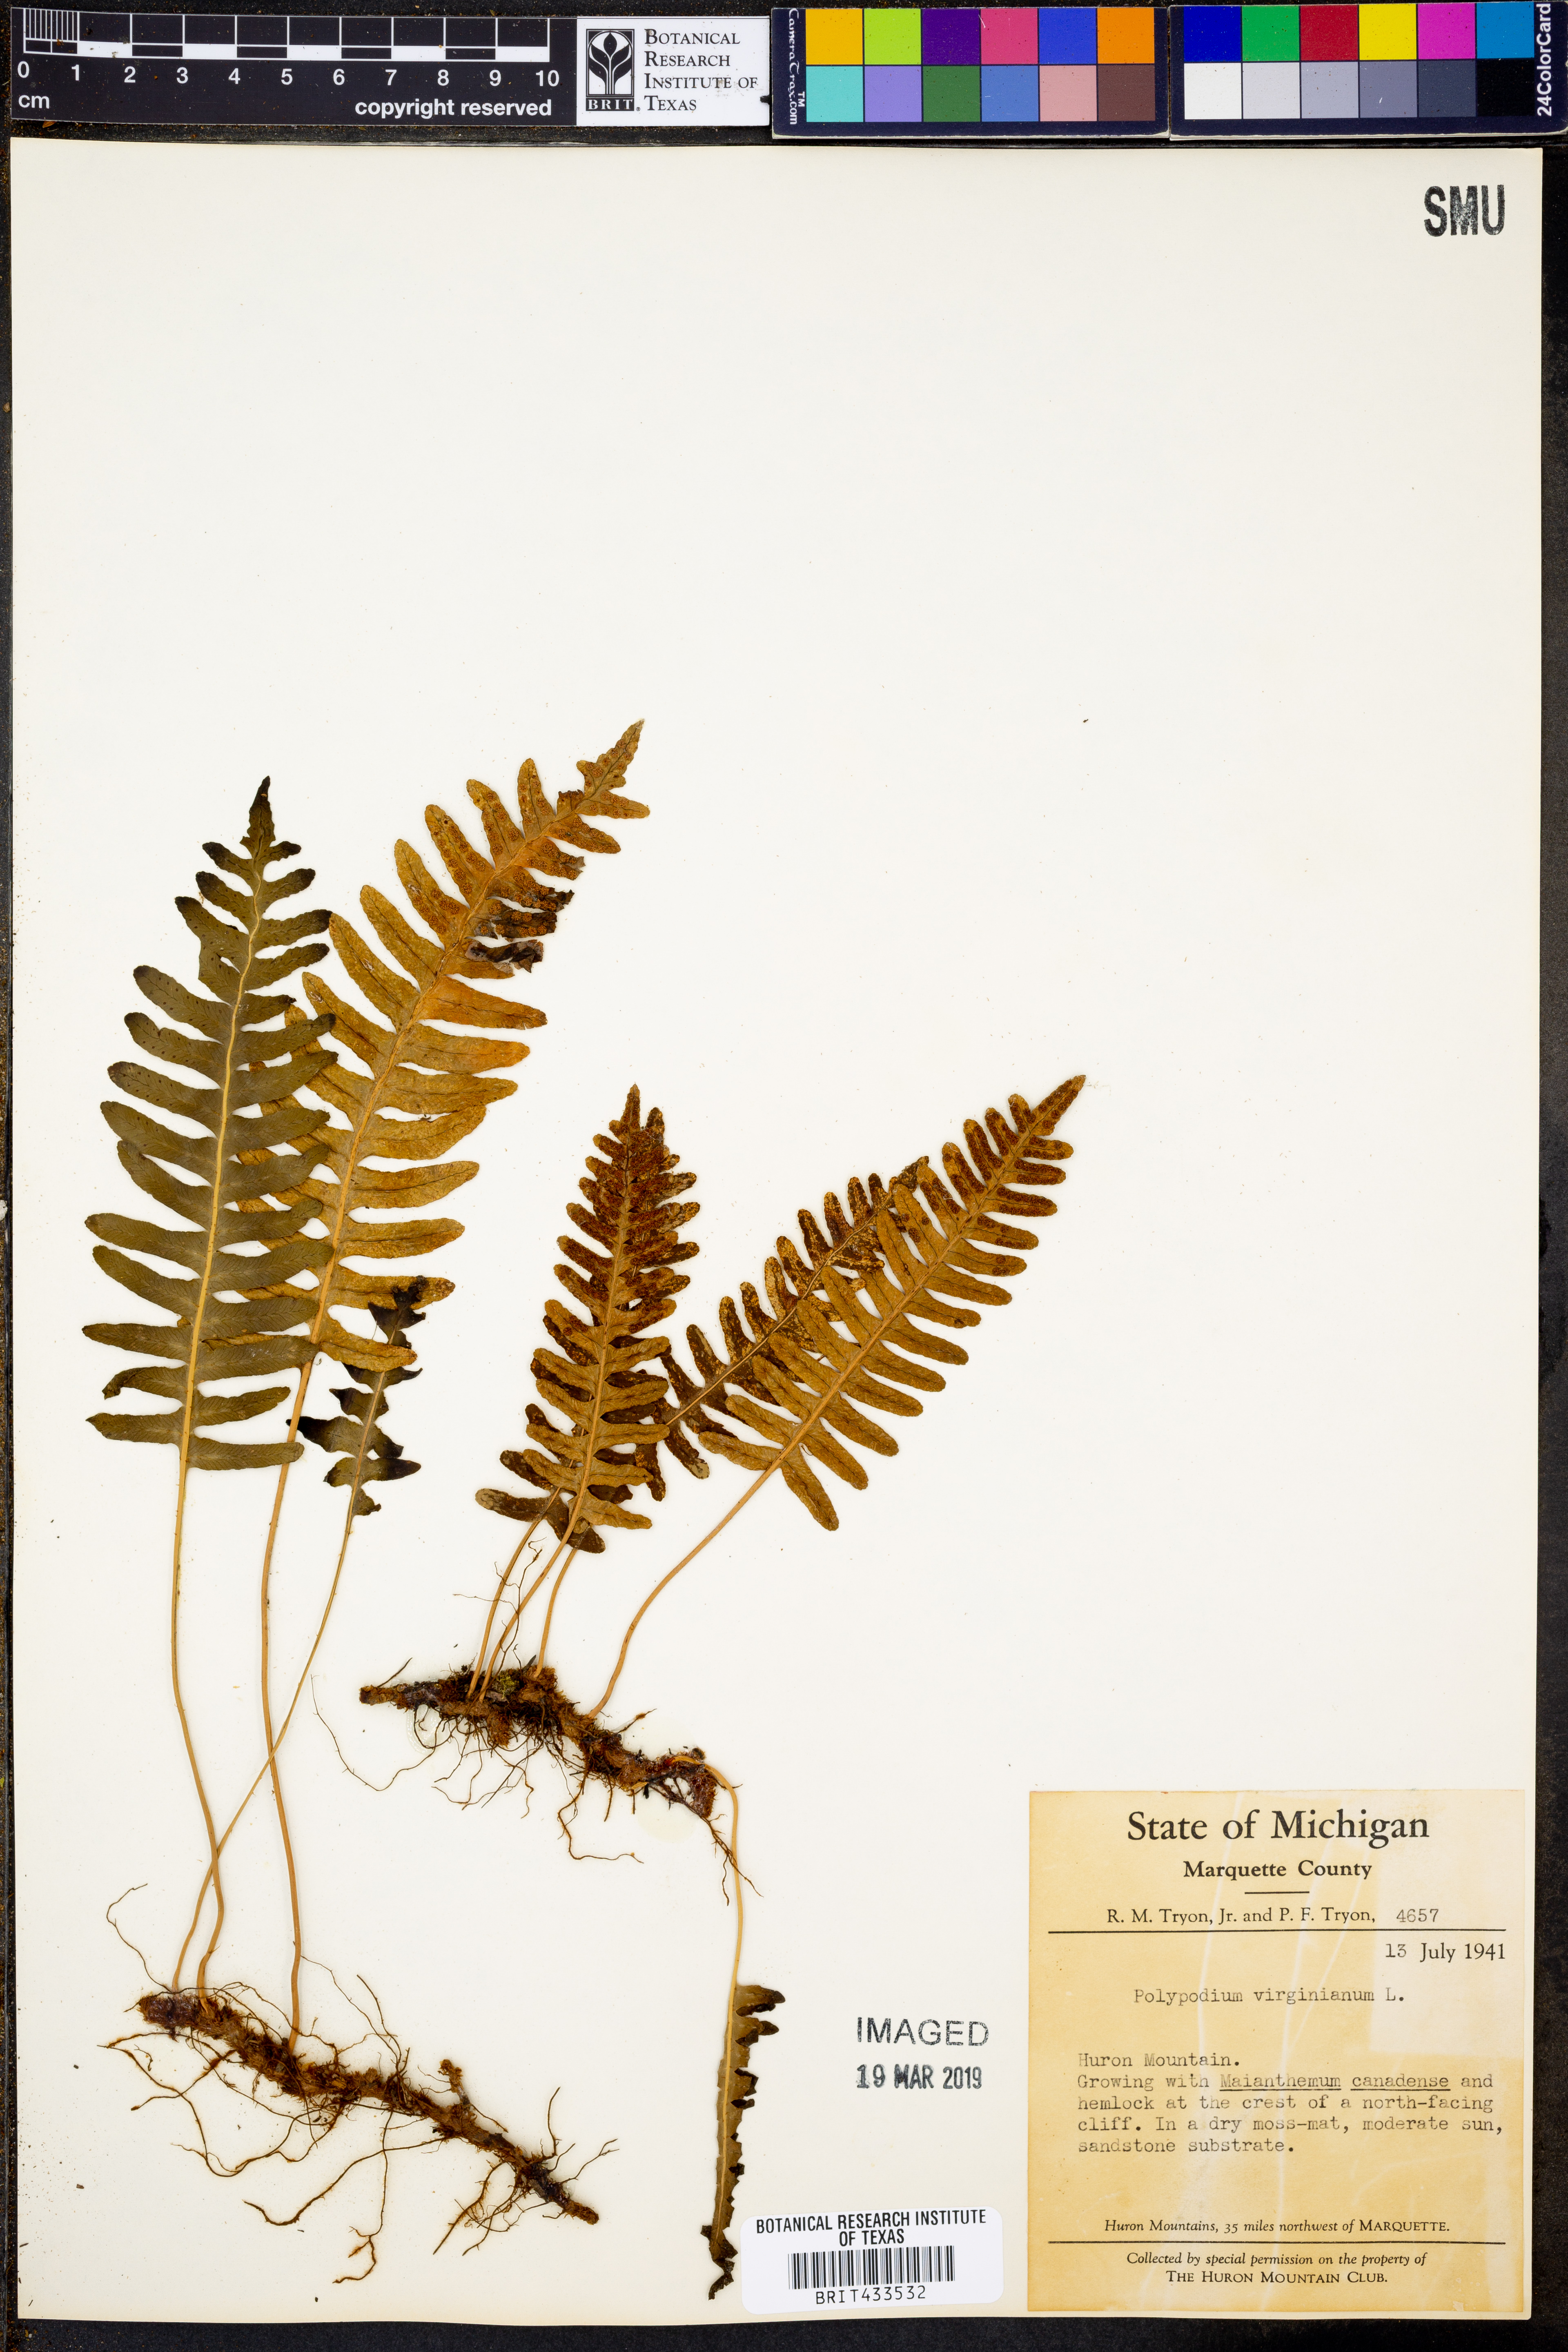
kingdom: Plantae
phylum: Tracheophyta
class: Polypodiopsida
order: Polypodiales
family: Polypodiaceae
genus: Polypodium
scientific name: Polypodium virginianum
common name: American wall fern
